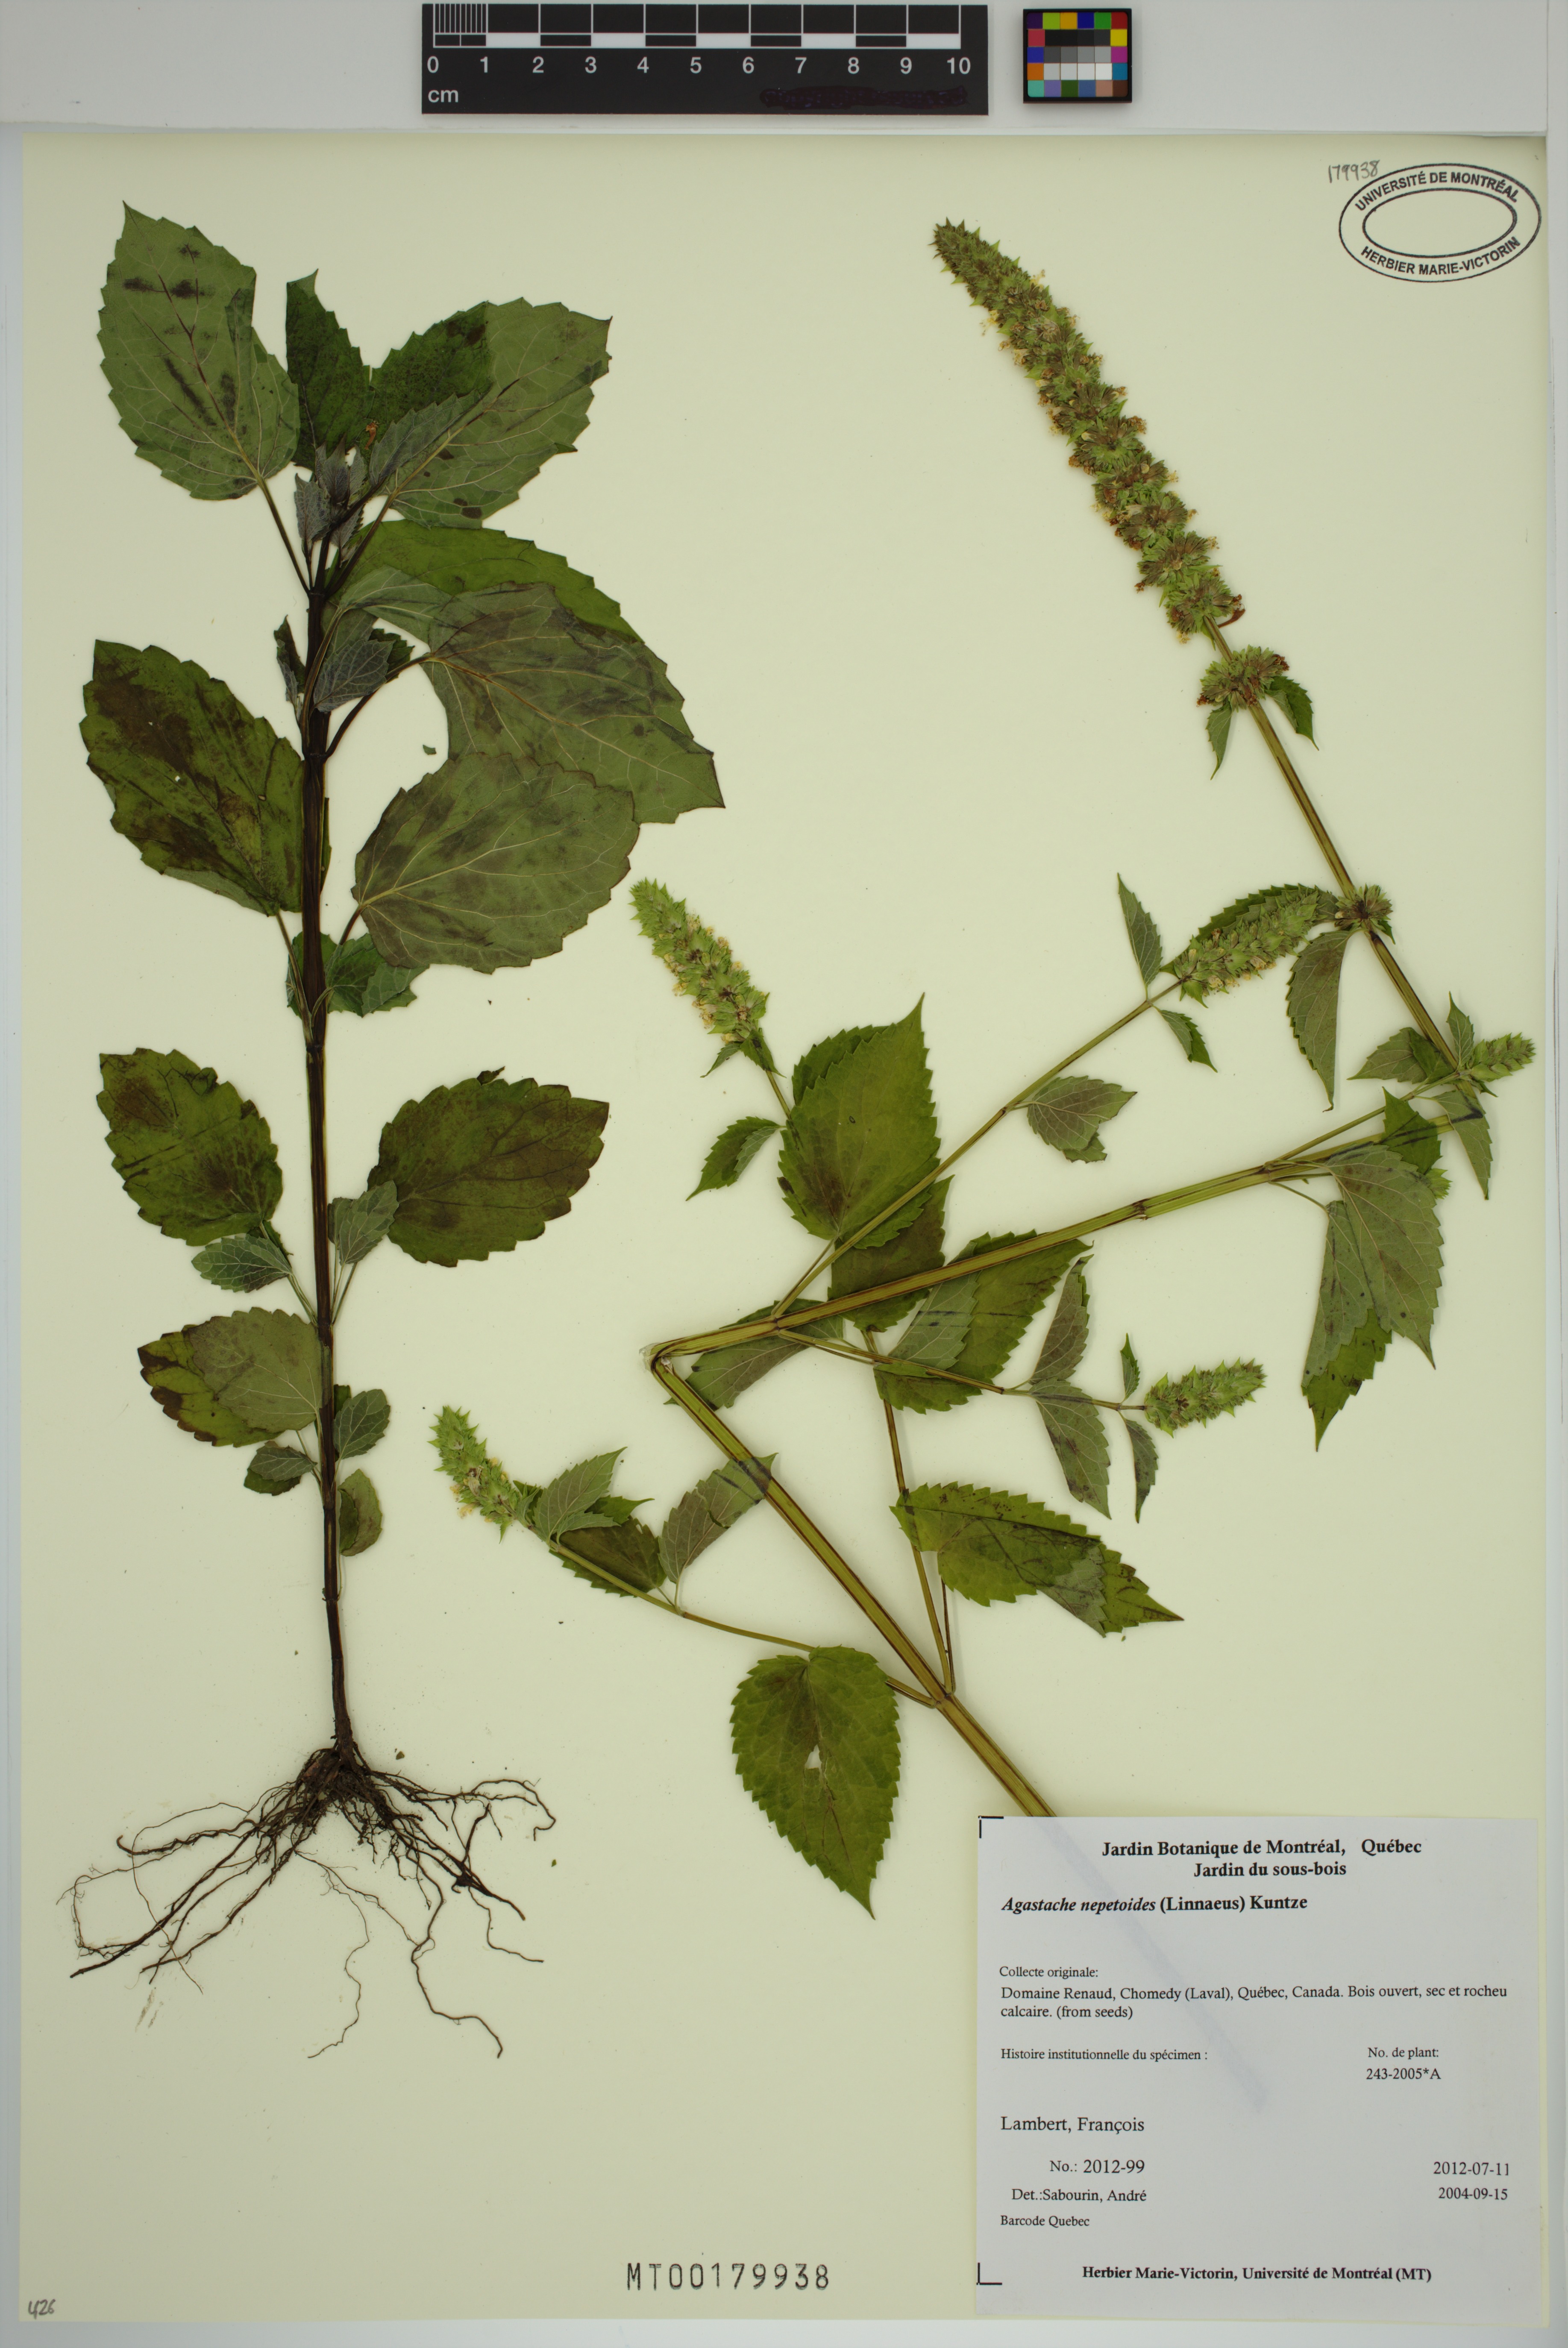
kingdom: Plantae
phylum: Tracheophyta
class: Magnoliopsida
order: Lamiales
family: Lamiaceae
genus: Agastache
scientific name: Agastache nepetoides
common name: Catnip giant hyssop
